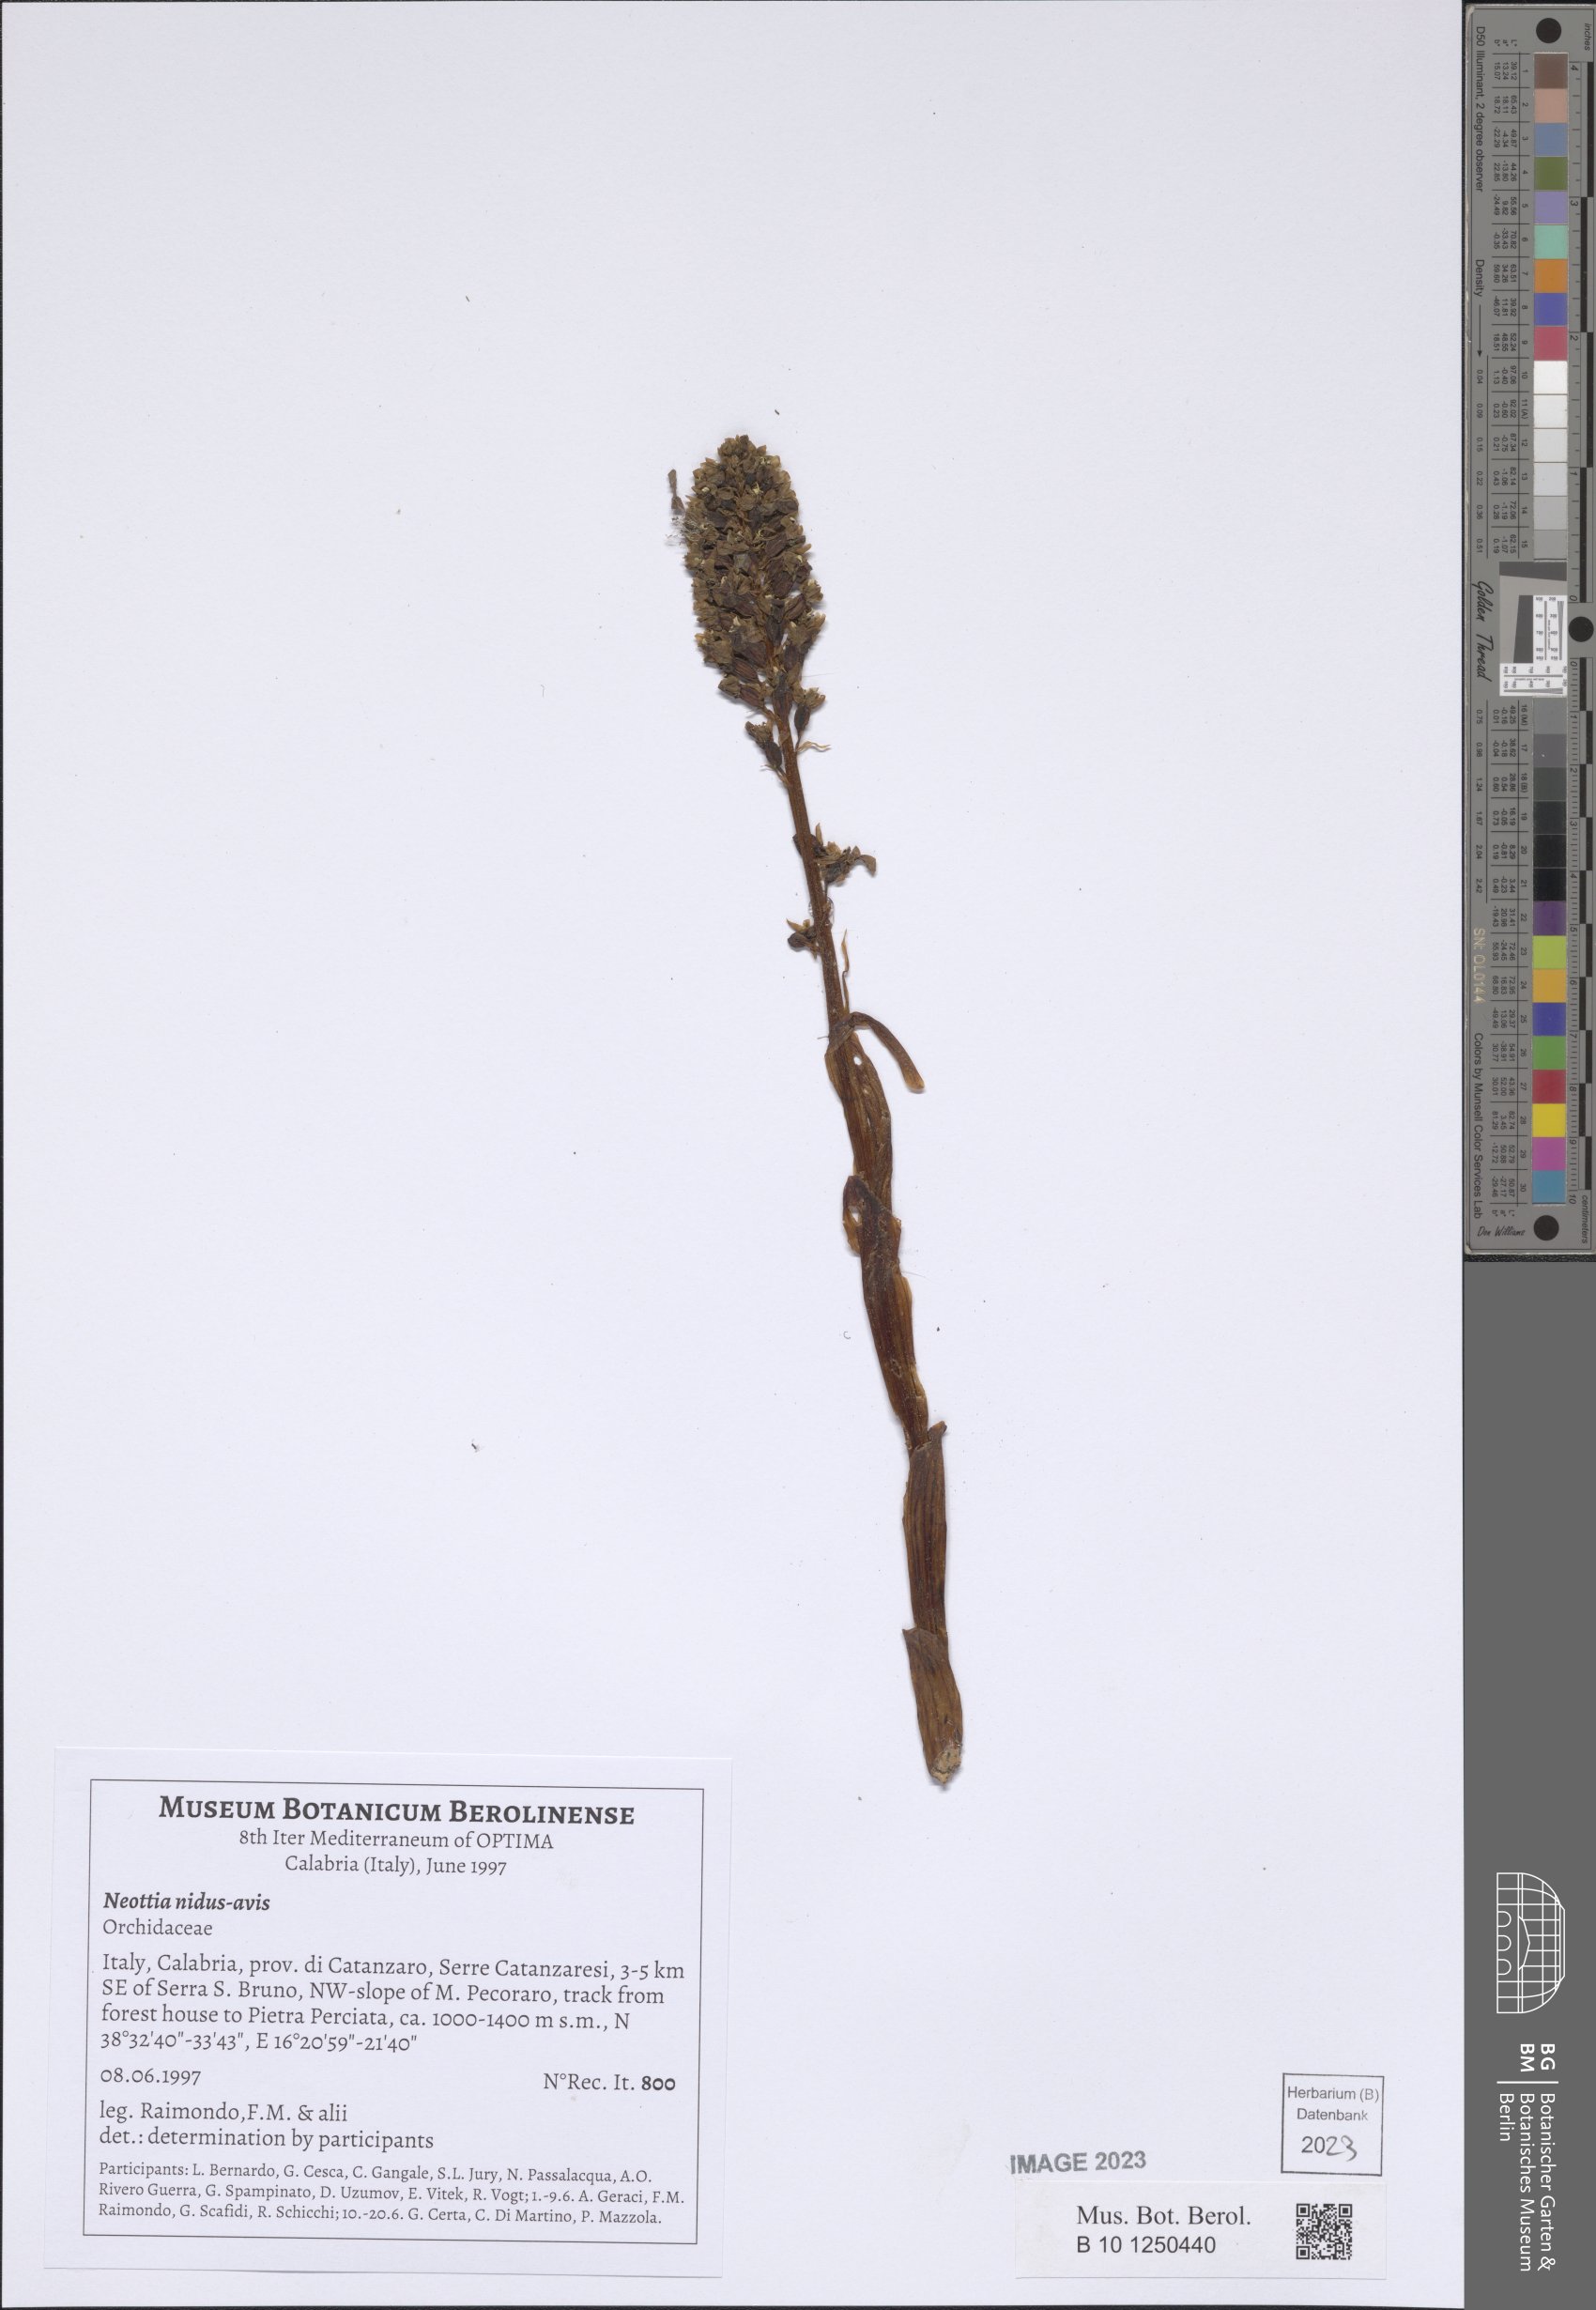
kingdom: Plantae
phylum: Tracheophyta
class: Liliopsida
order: Asparagales
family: Orchidaceae
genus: Neottia
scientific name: Neottia nidus-avis
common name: Bird's-nest orchid
